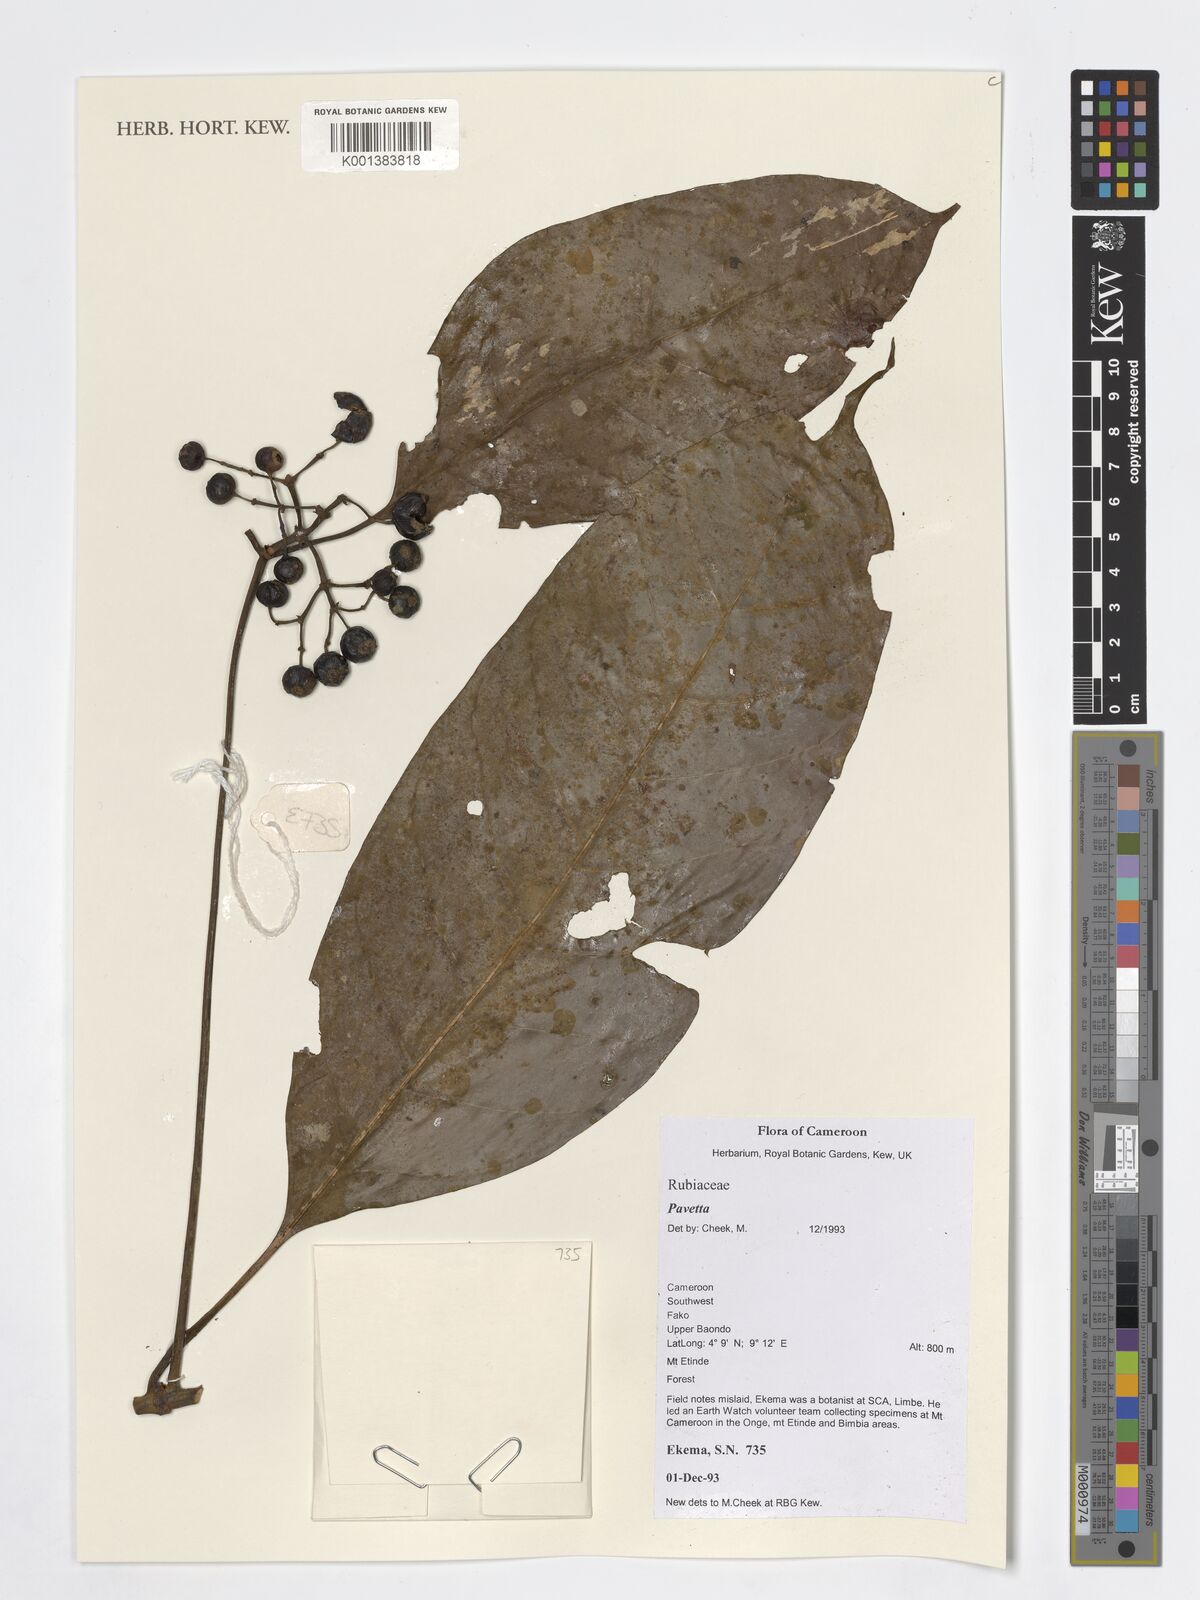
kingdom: Plantae
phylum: Tracheophyta
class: Magnoliopsida
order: Gentianales
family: Rubiaceae
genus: Pavetta
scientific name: Pavetta
